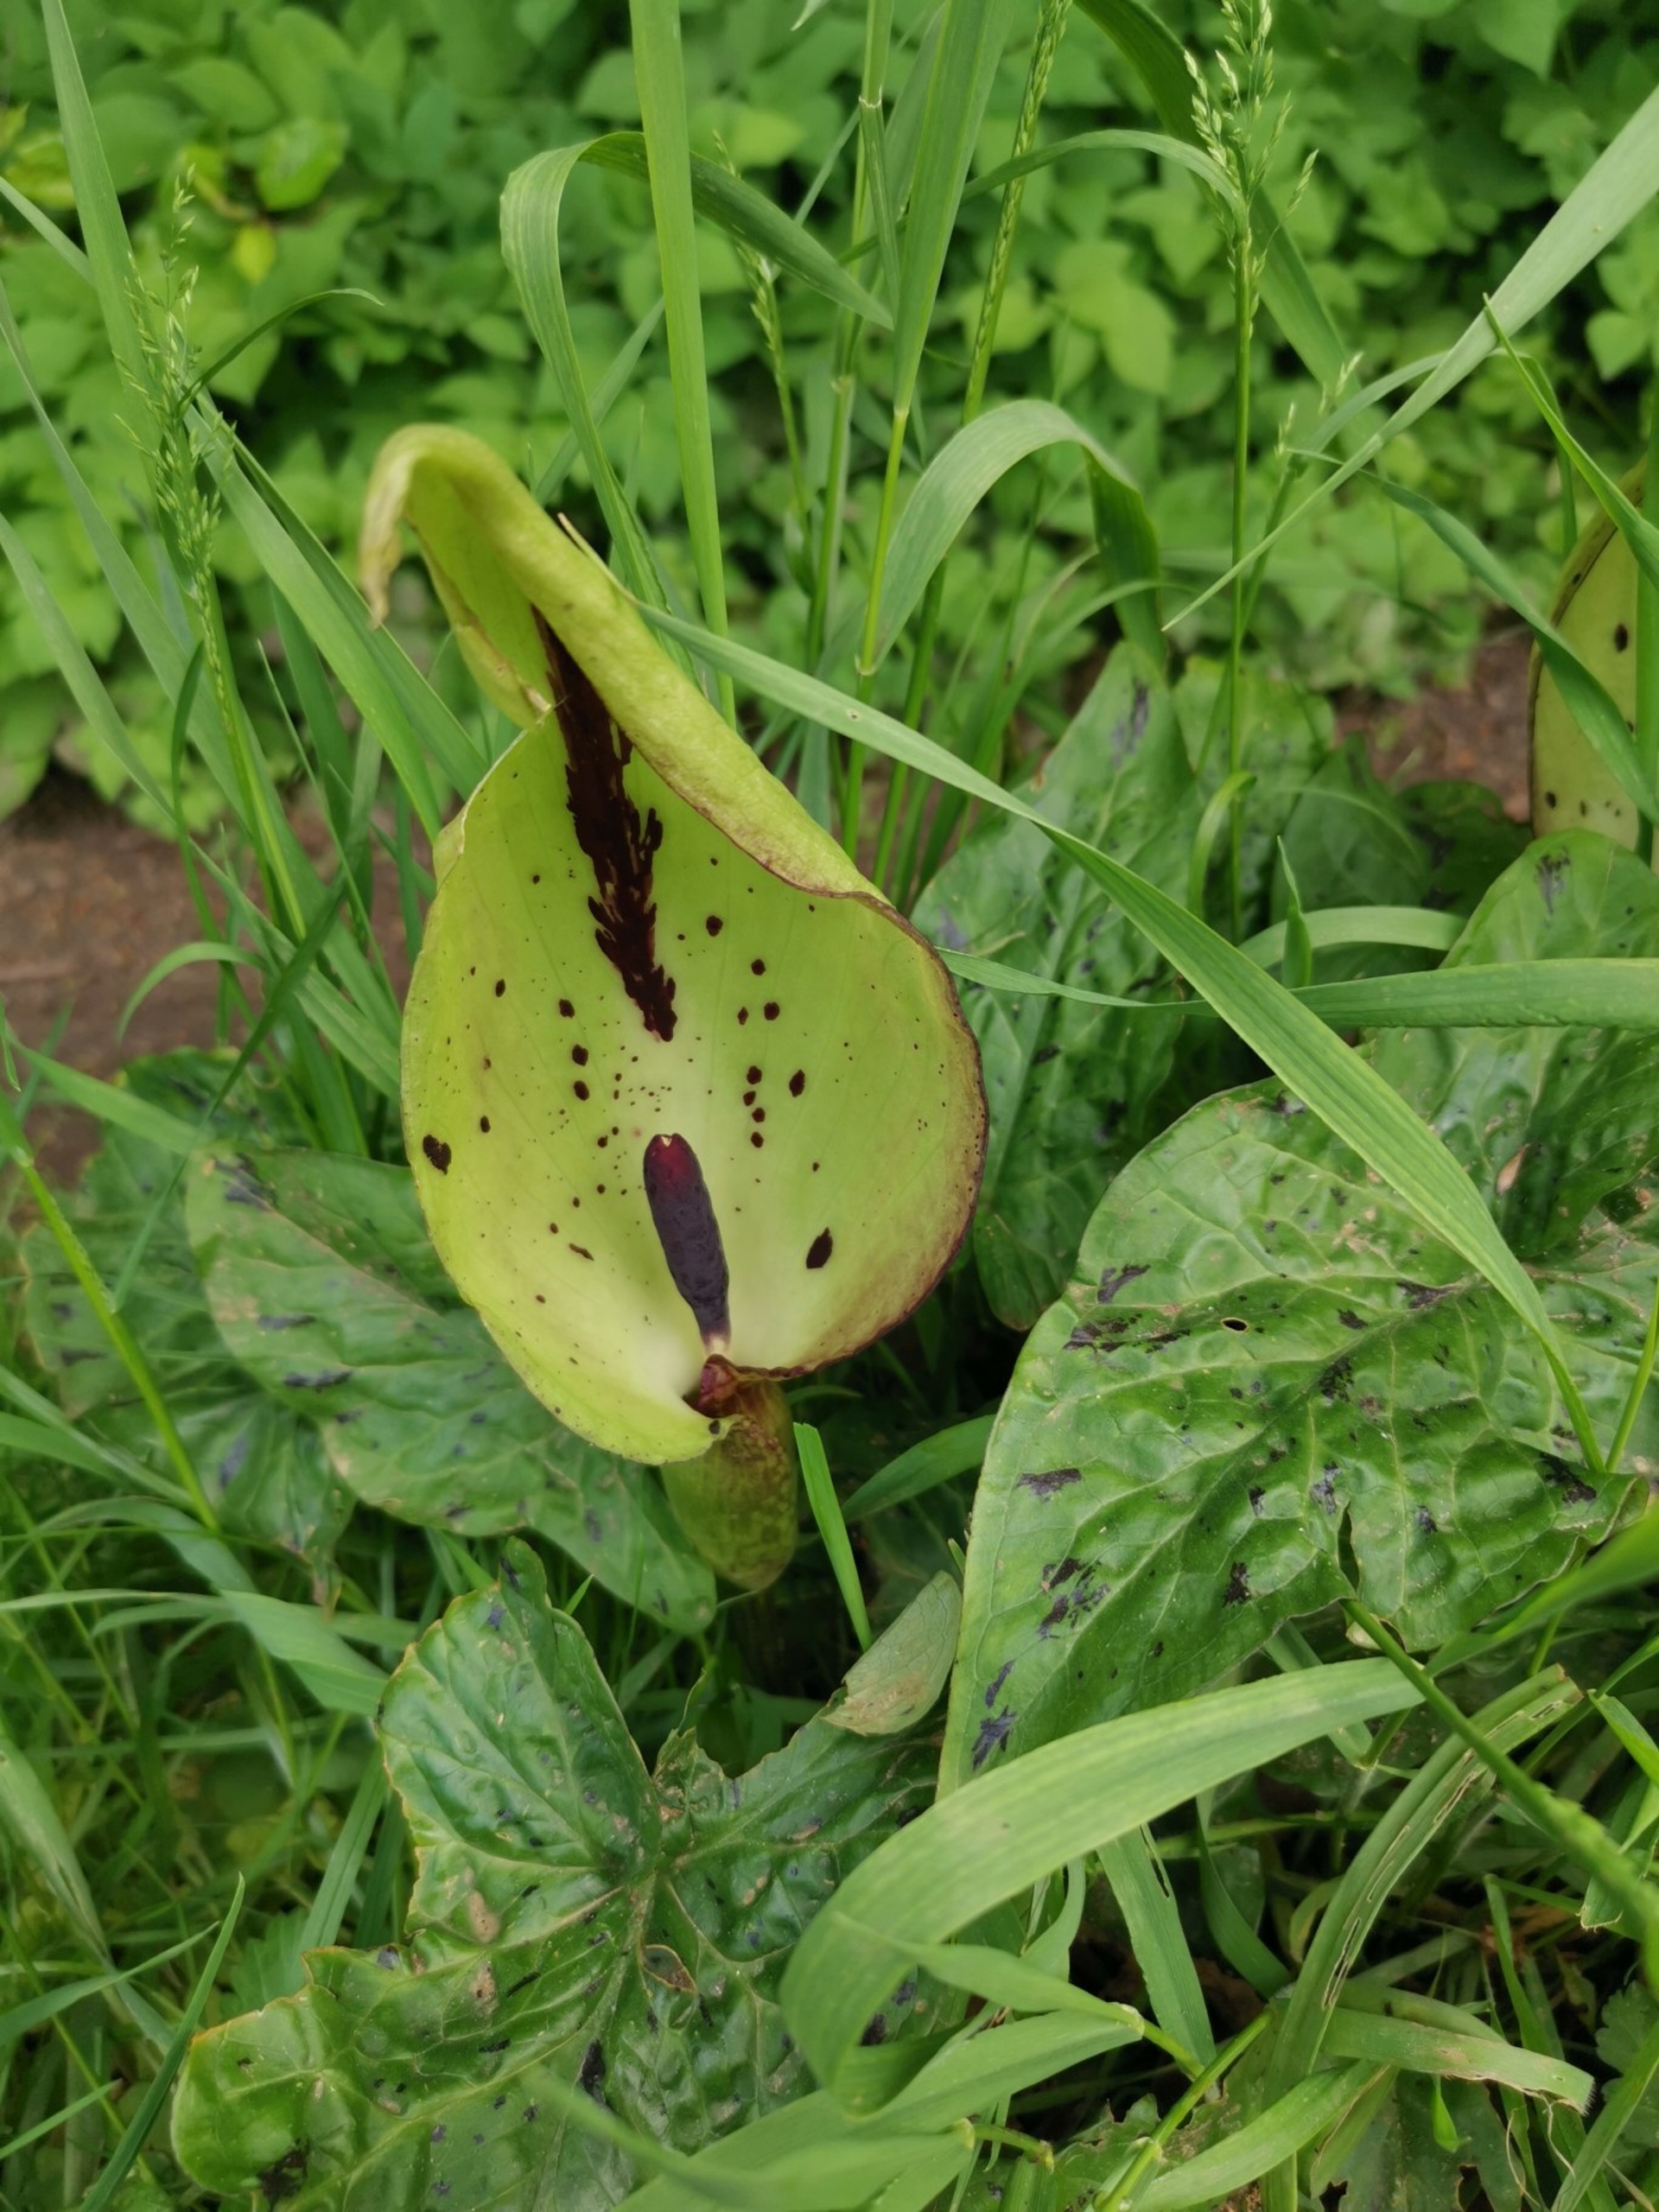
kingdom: Plantae
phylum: Tracheophyta
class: Liliopsida
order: Alismatales
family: Araceae
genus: Arum
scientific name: Arum maculatum
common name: Plettet arum
